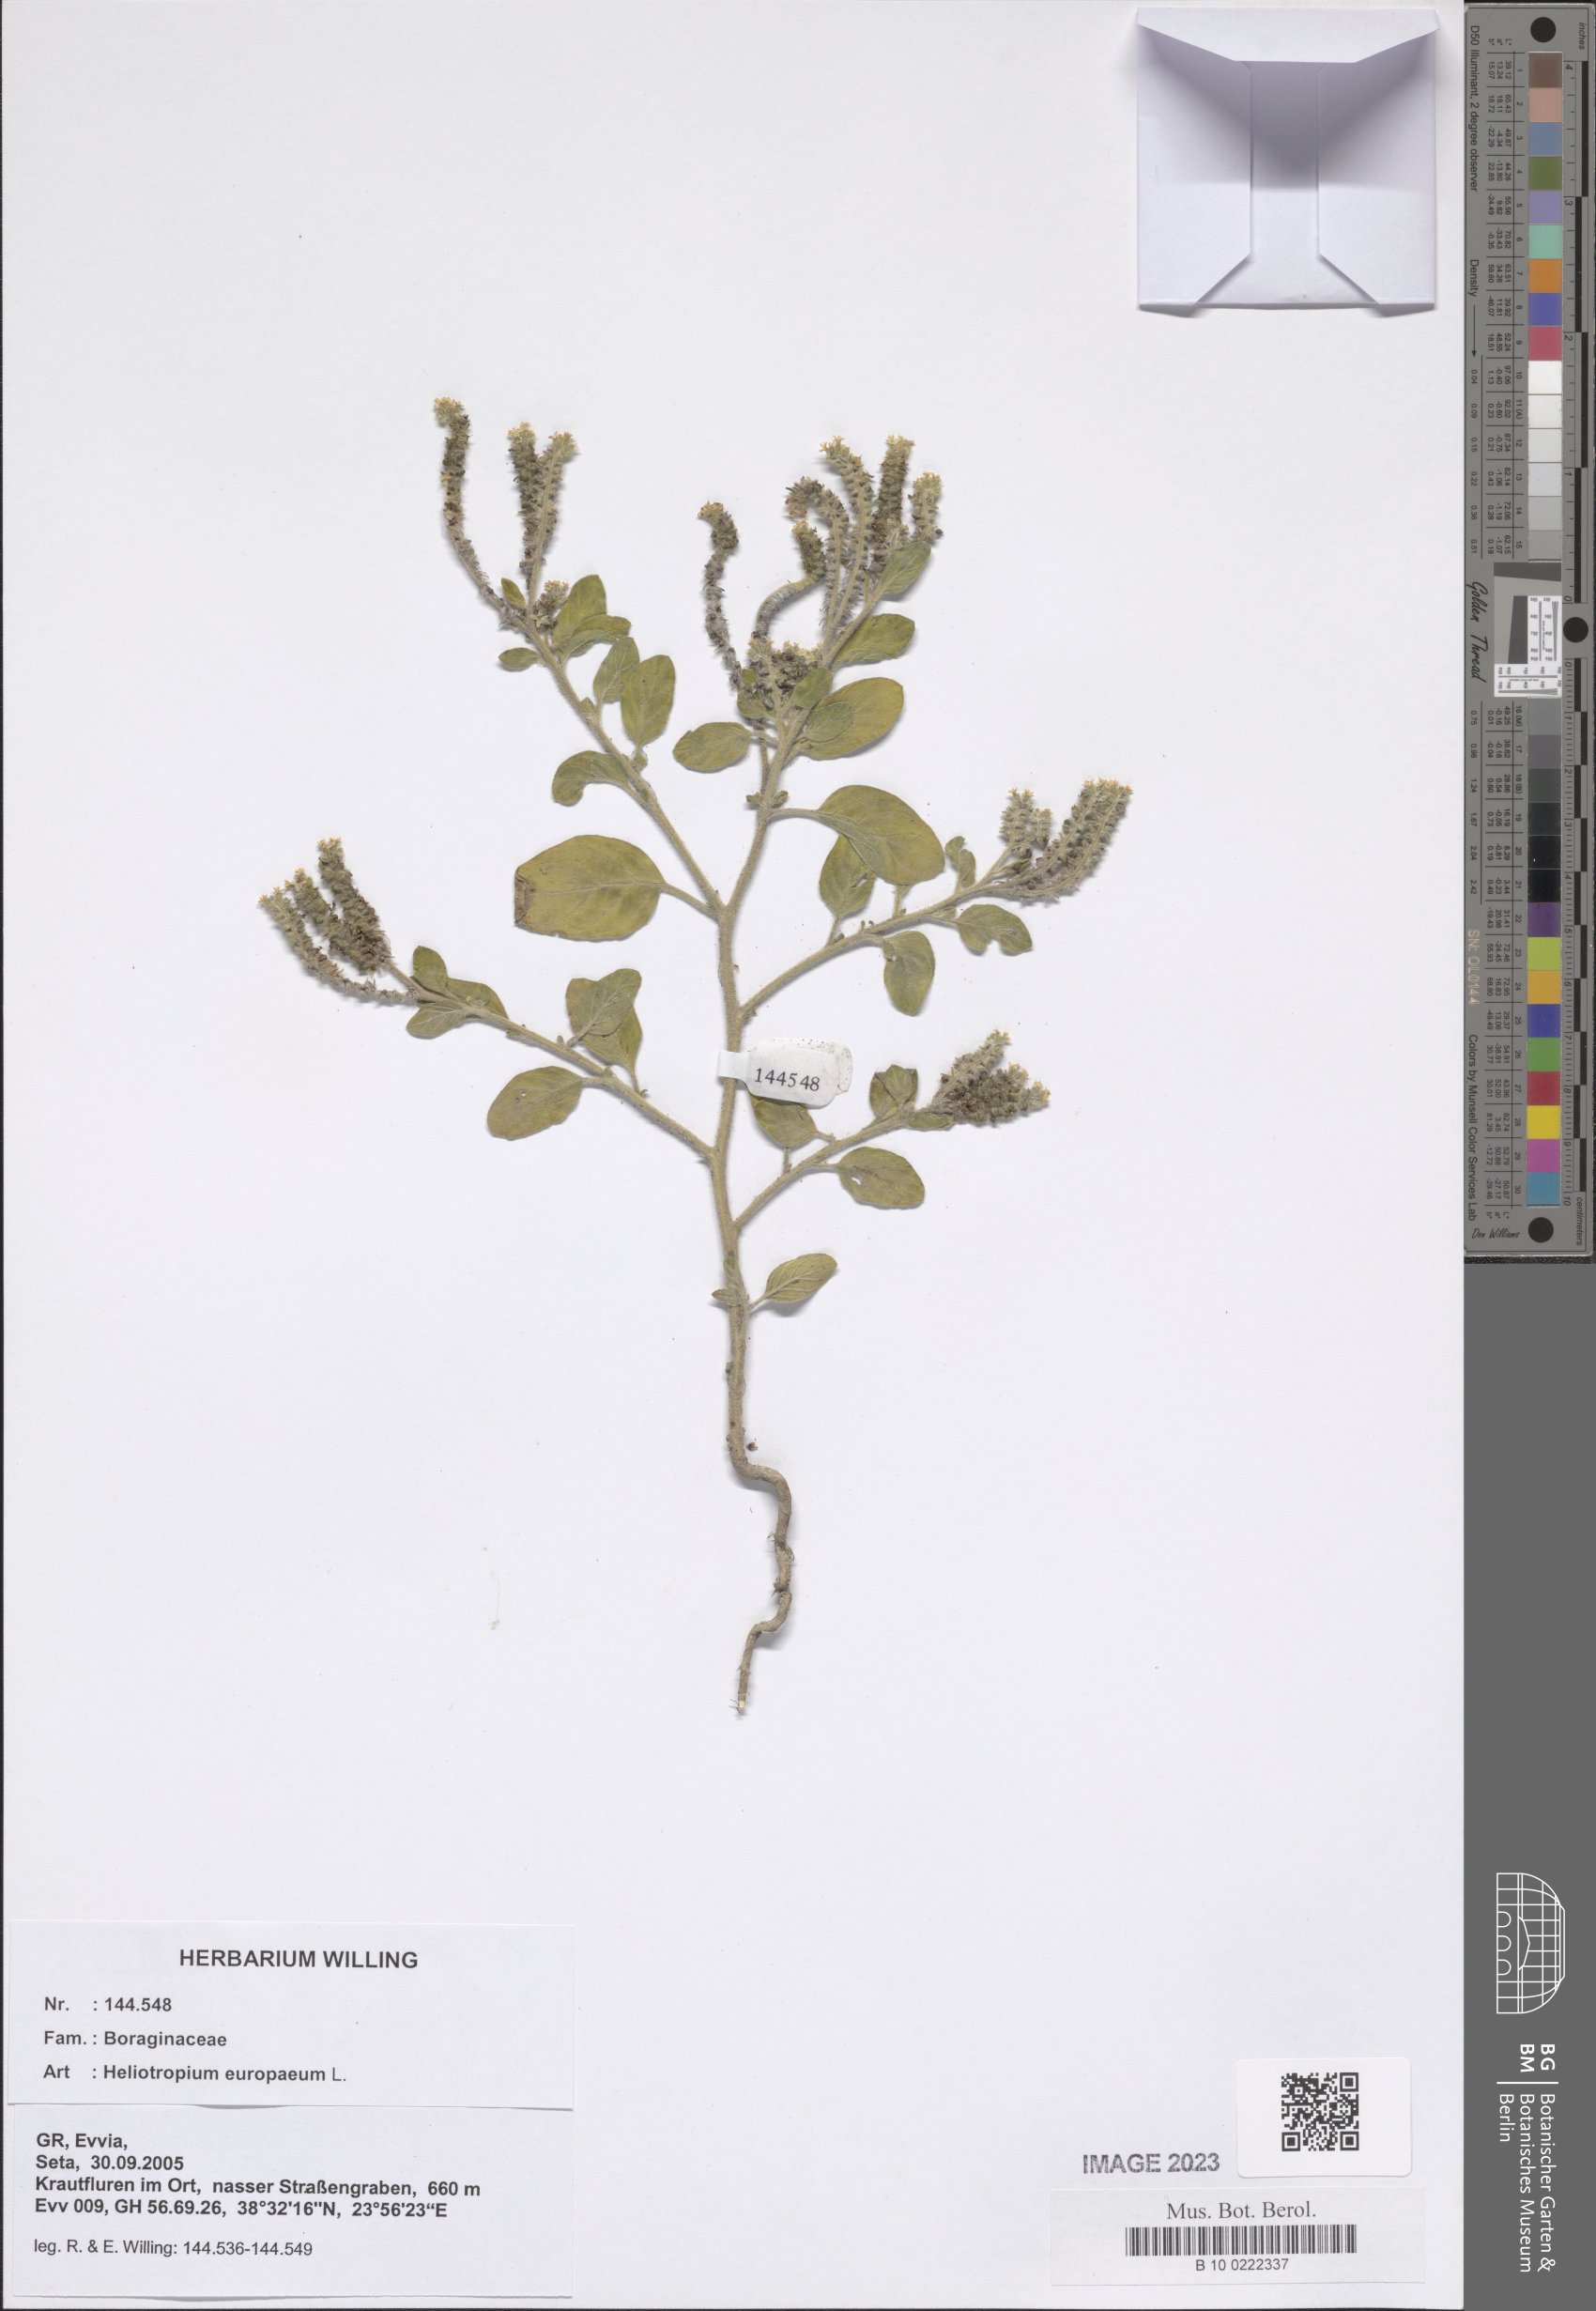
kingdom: Plantae
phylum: Tracheophyta
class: Magnoliopsida
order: Boraginales
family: Heliotropiaceae
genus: Heliotropium
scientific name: Heliotropium europaeum
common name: European heliotrope
